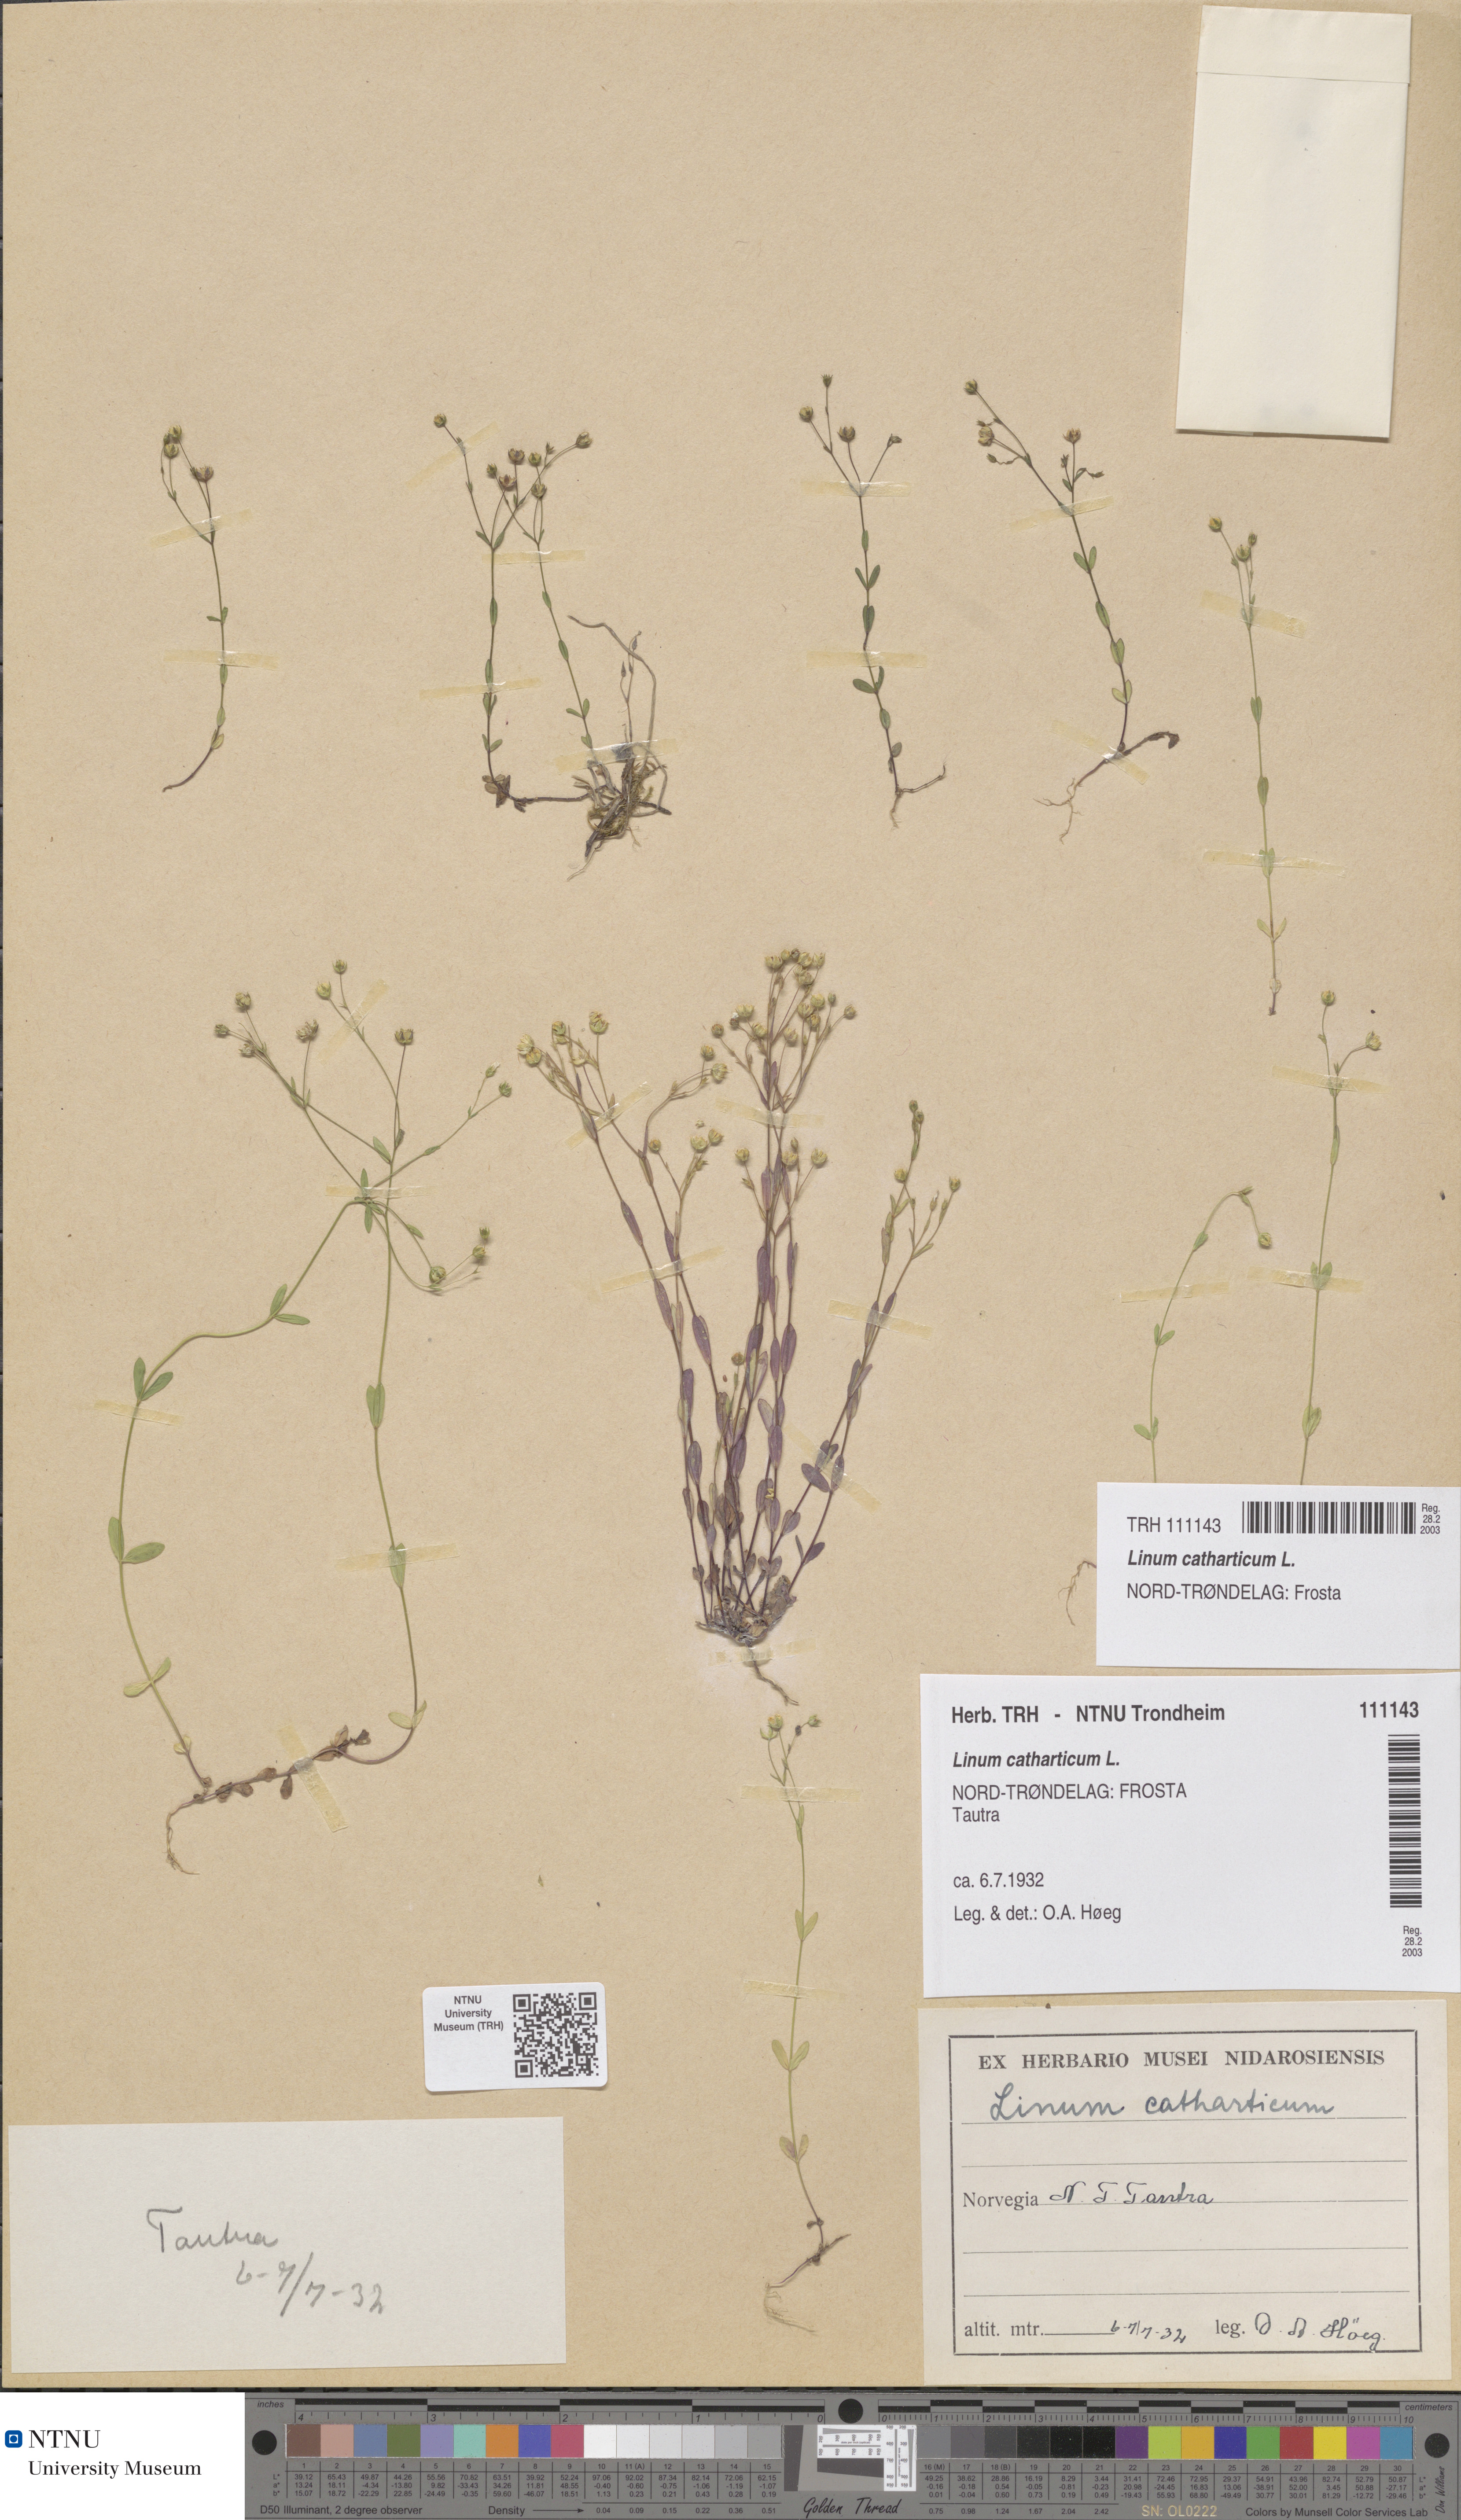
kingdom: Plantae
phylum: Tracheophyta
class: Magnoliopsida
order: Malpighiales
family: Linaceae
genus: Linum
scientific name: Linum catharticum
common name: Fairy flax
